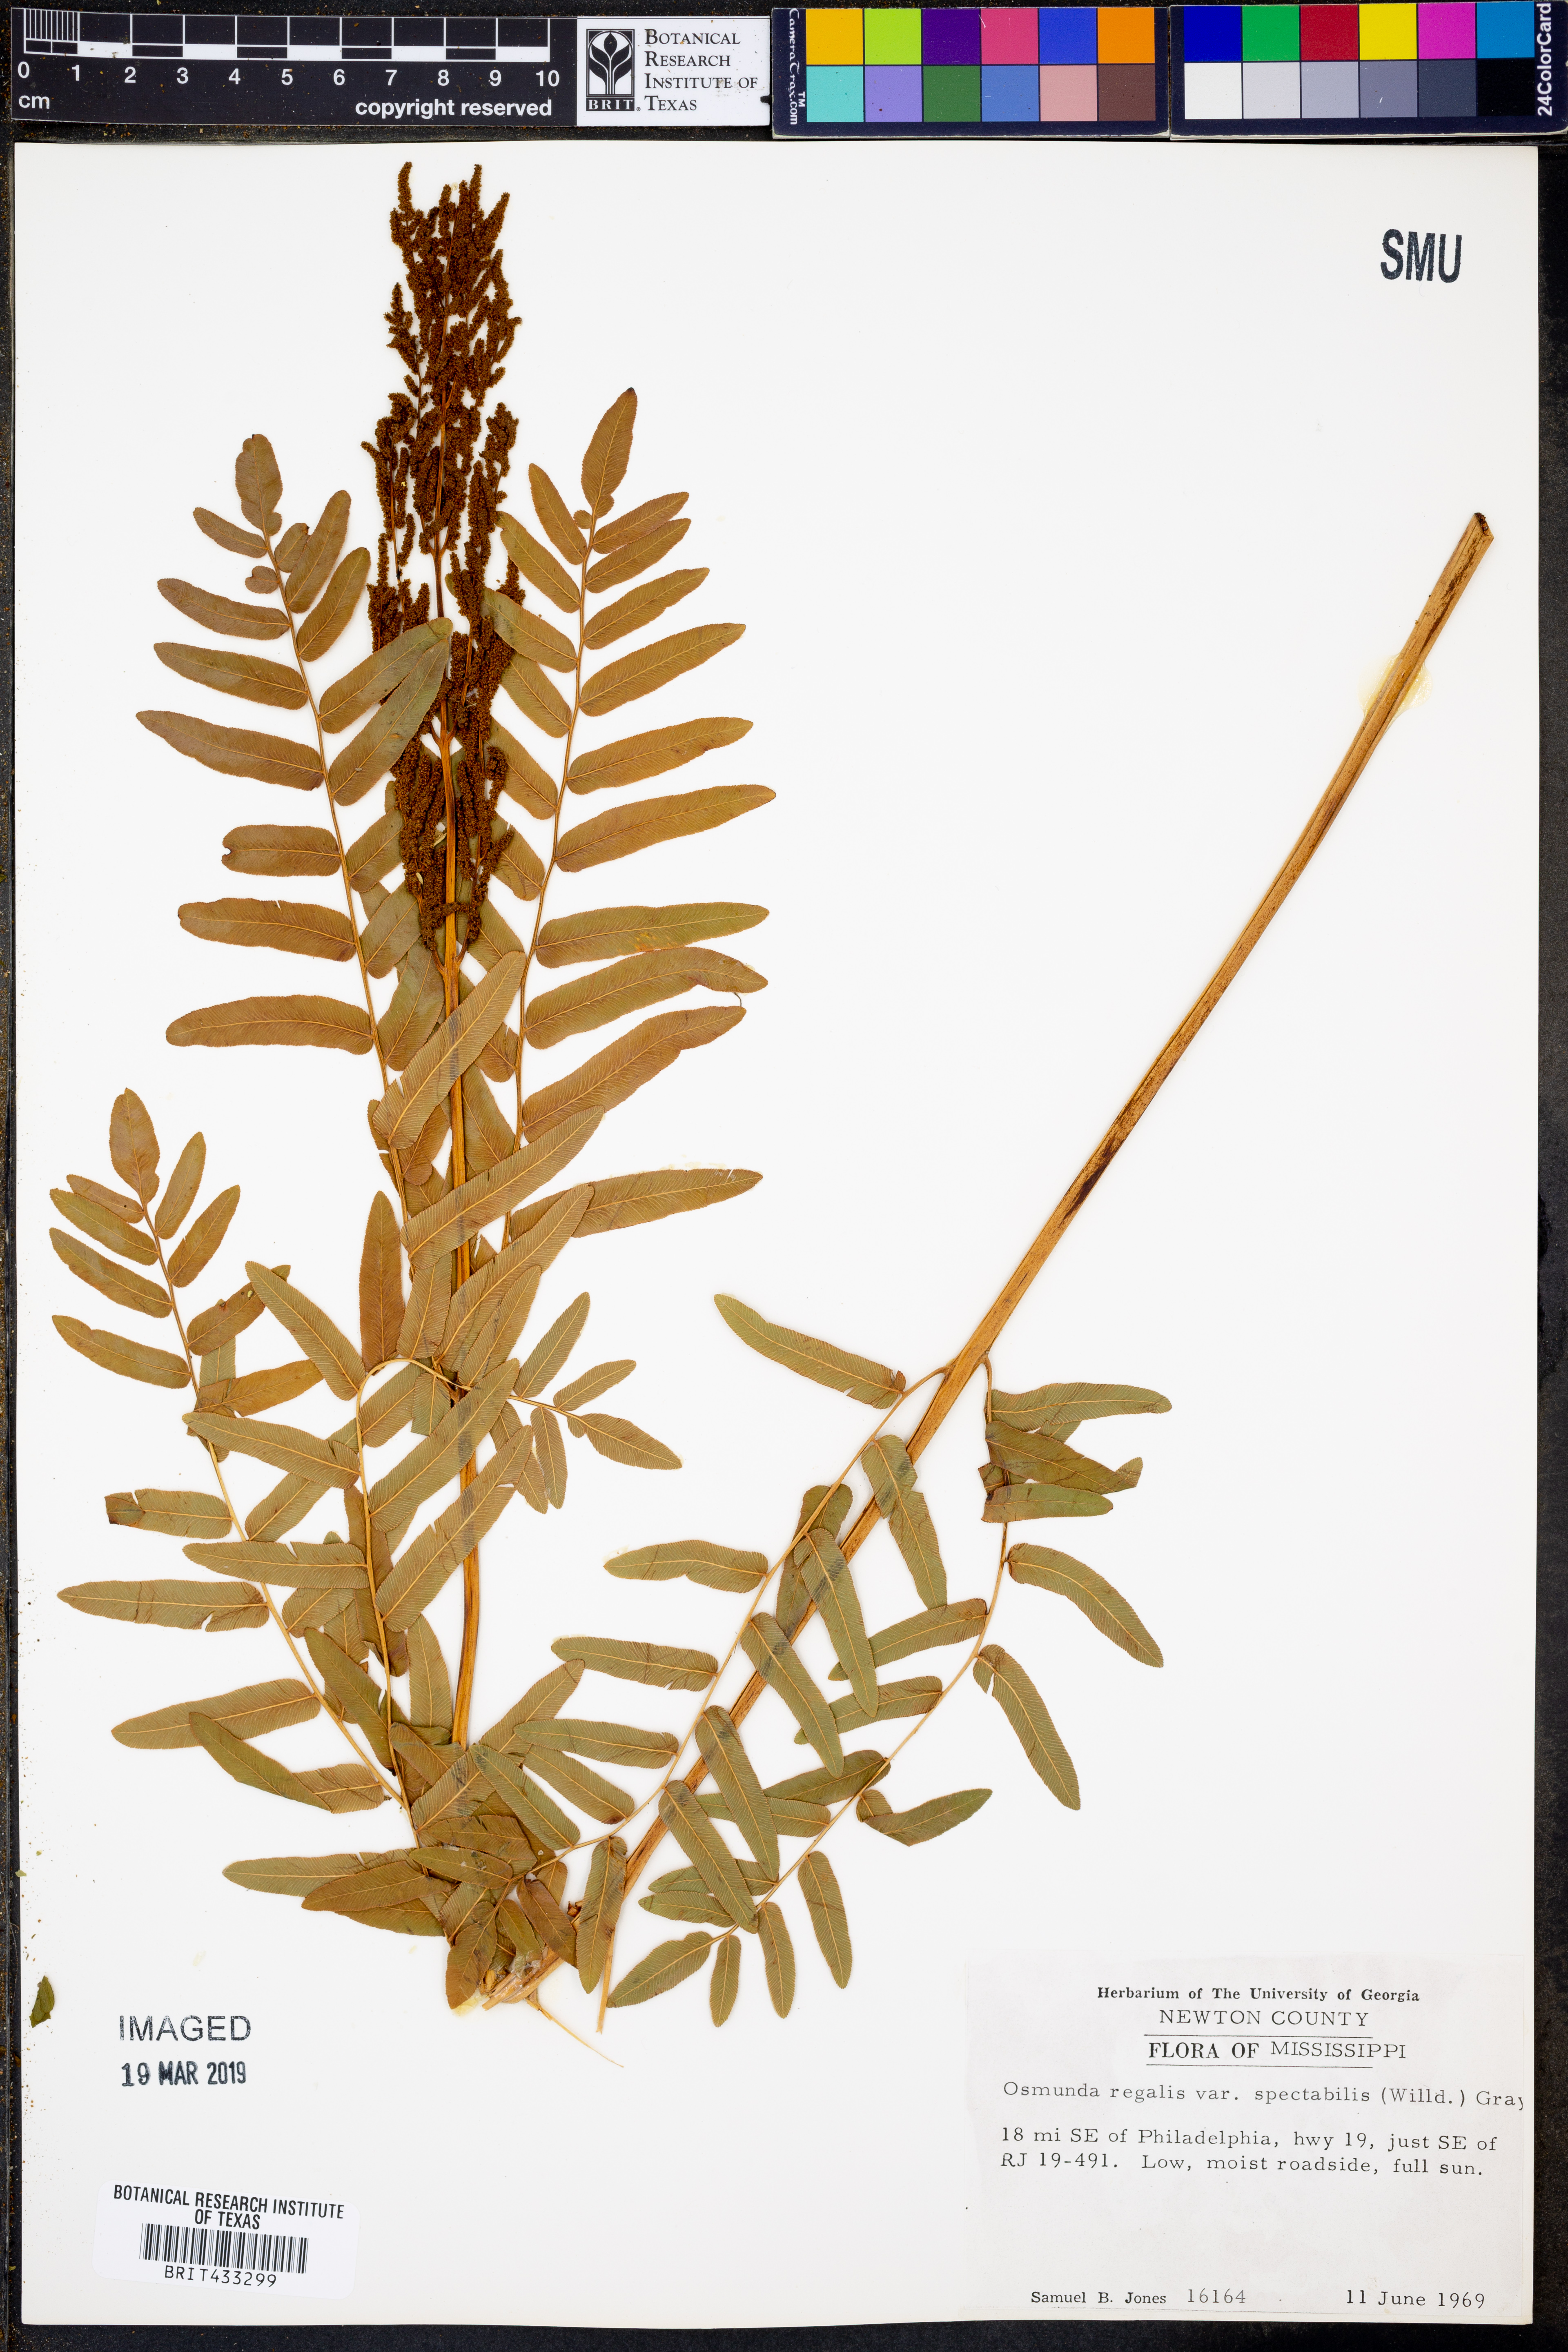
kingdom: Plantae
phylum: Tracheophyta
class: Polypodiopsida
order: Osmundales
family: Osmundaceae
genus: Osmunda
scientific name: Osmunda spectabilis
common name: American royal fern
